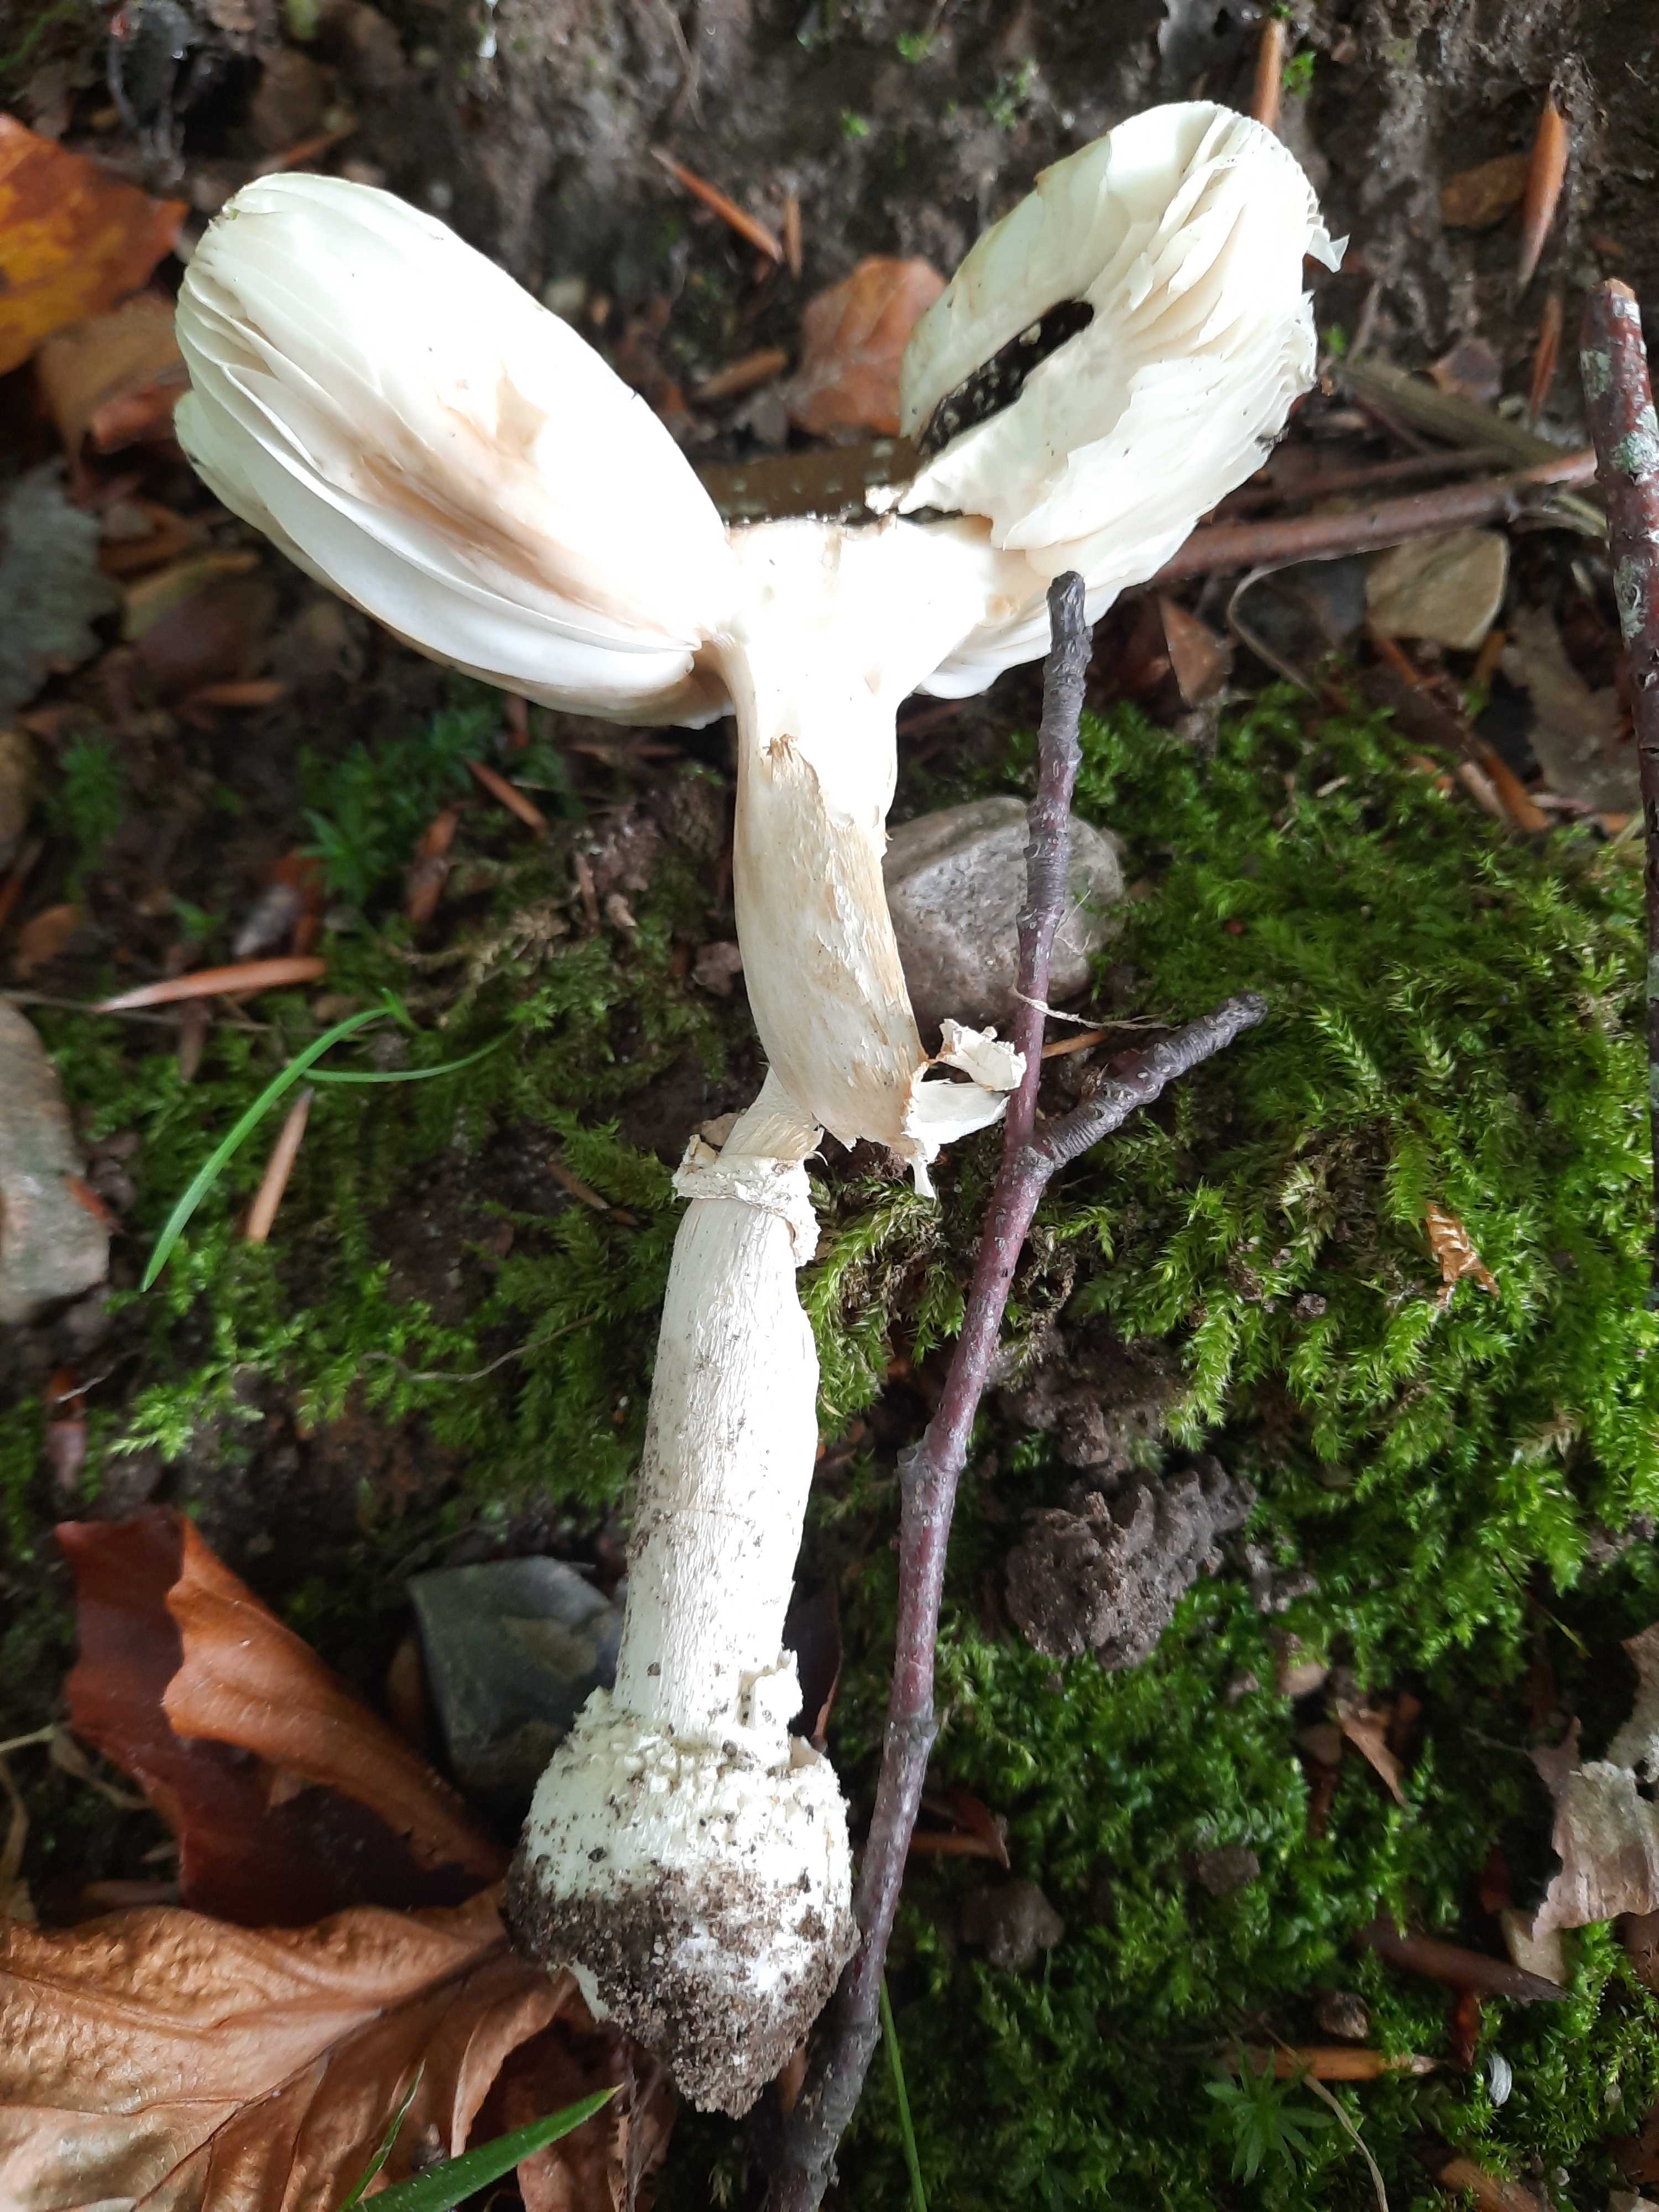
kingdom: Fungi
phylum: Basidiomycota
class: Agaricomycetes
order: Agaricales
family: Amanitaceae
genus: Amanita
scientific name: Amanita pantherina
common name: panter-fluesvamp
